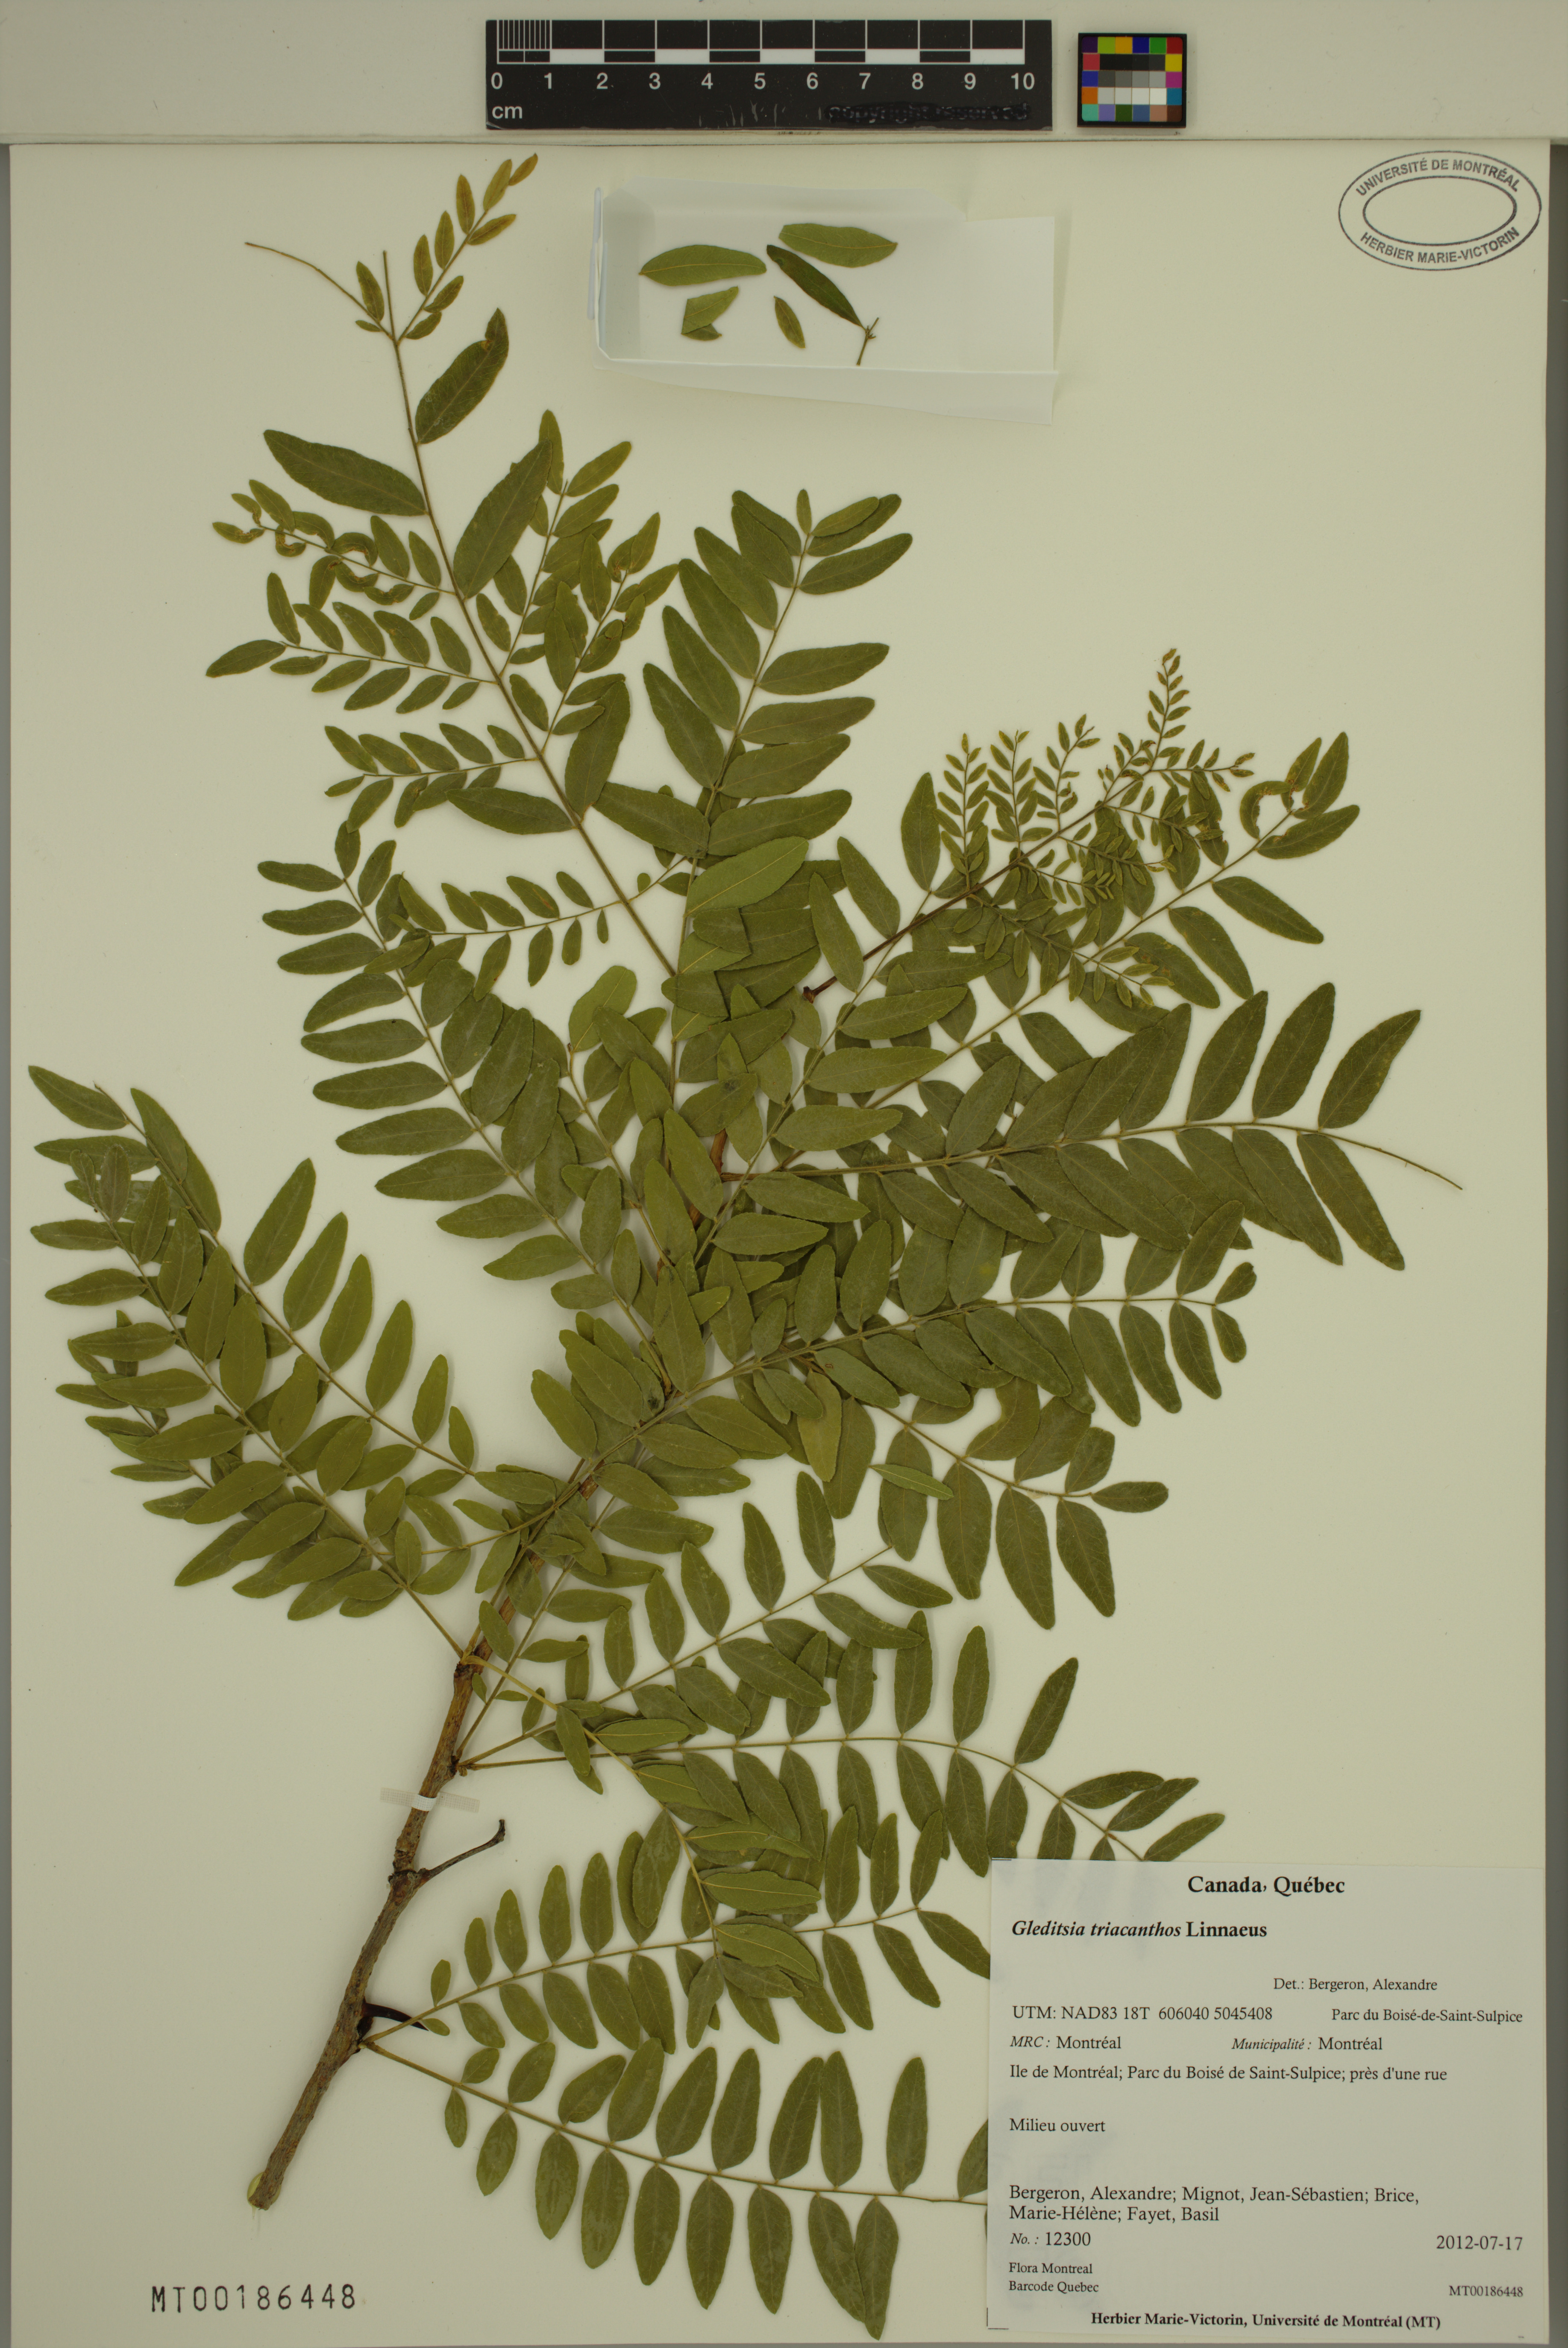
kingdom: Plantae
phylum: Tracheophyta
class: Magnoliopsida
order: Fabales
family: Fabaceae
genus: Gleditsia
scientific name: Gleditsia triacanthos
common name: Common honeylocust
